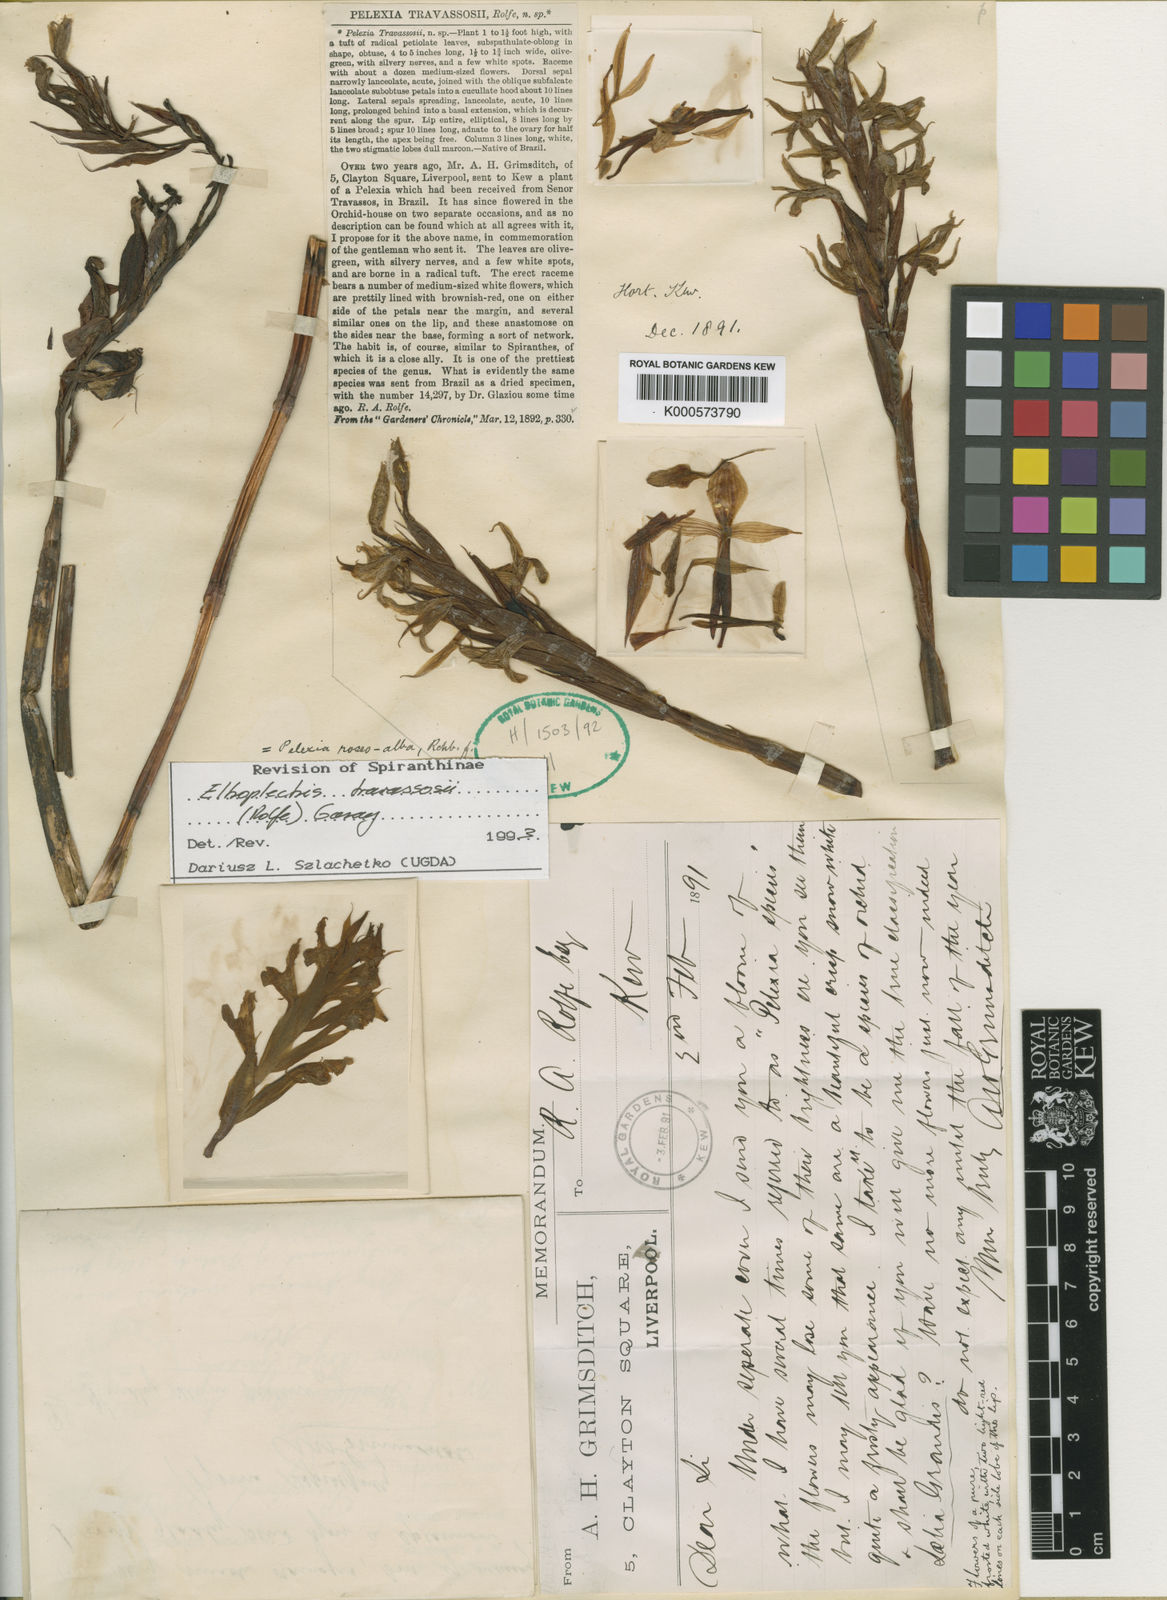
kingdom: Plantae
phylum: Tracheophyta
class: Liliopsida
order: Asparagales
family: Orchidaceae
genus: Pteroglossa
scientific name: Pteroglossa roseoalba
